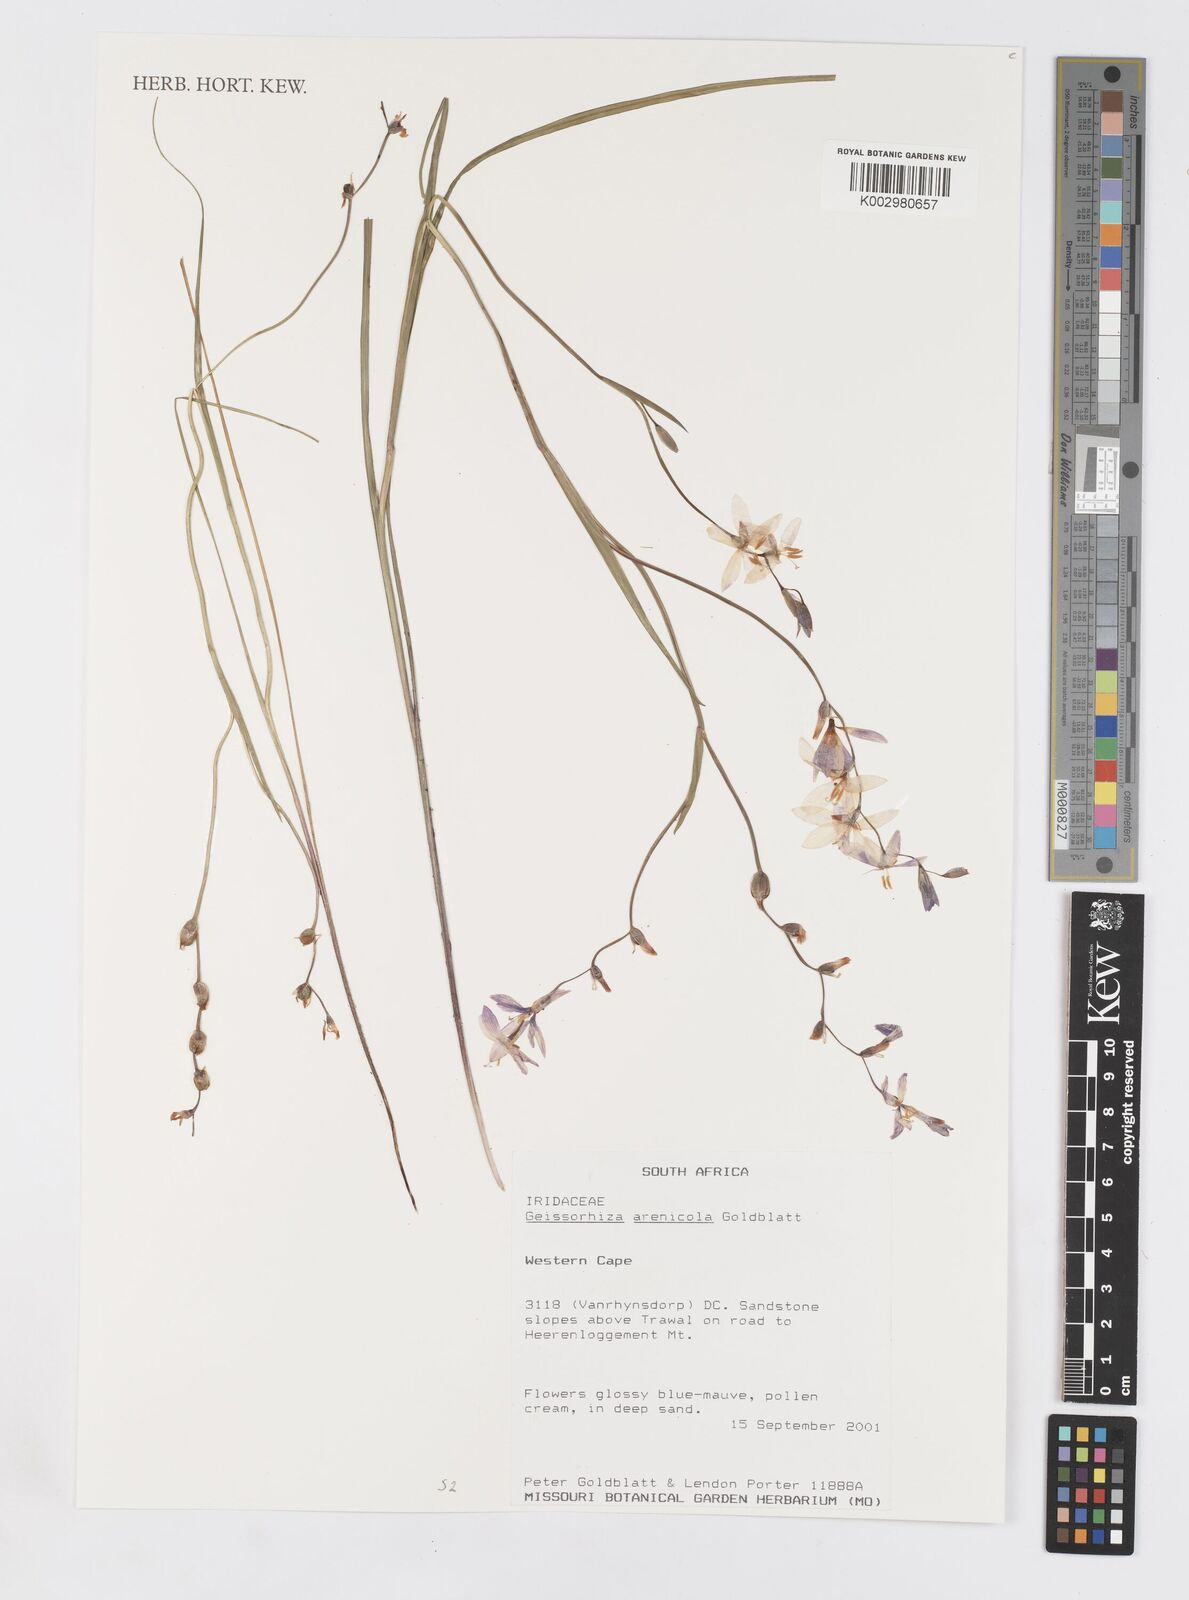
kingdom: Plantae
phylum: Tracheophyta
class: Liliopsida
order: Asparagales
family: Iridaceae
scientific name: Iridaceae
